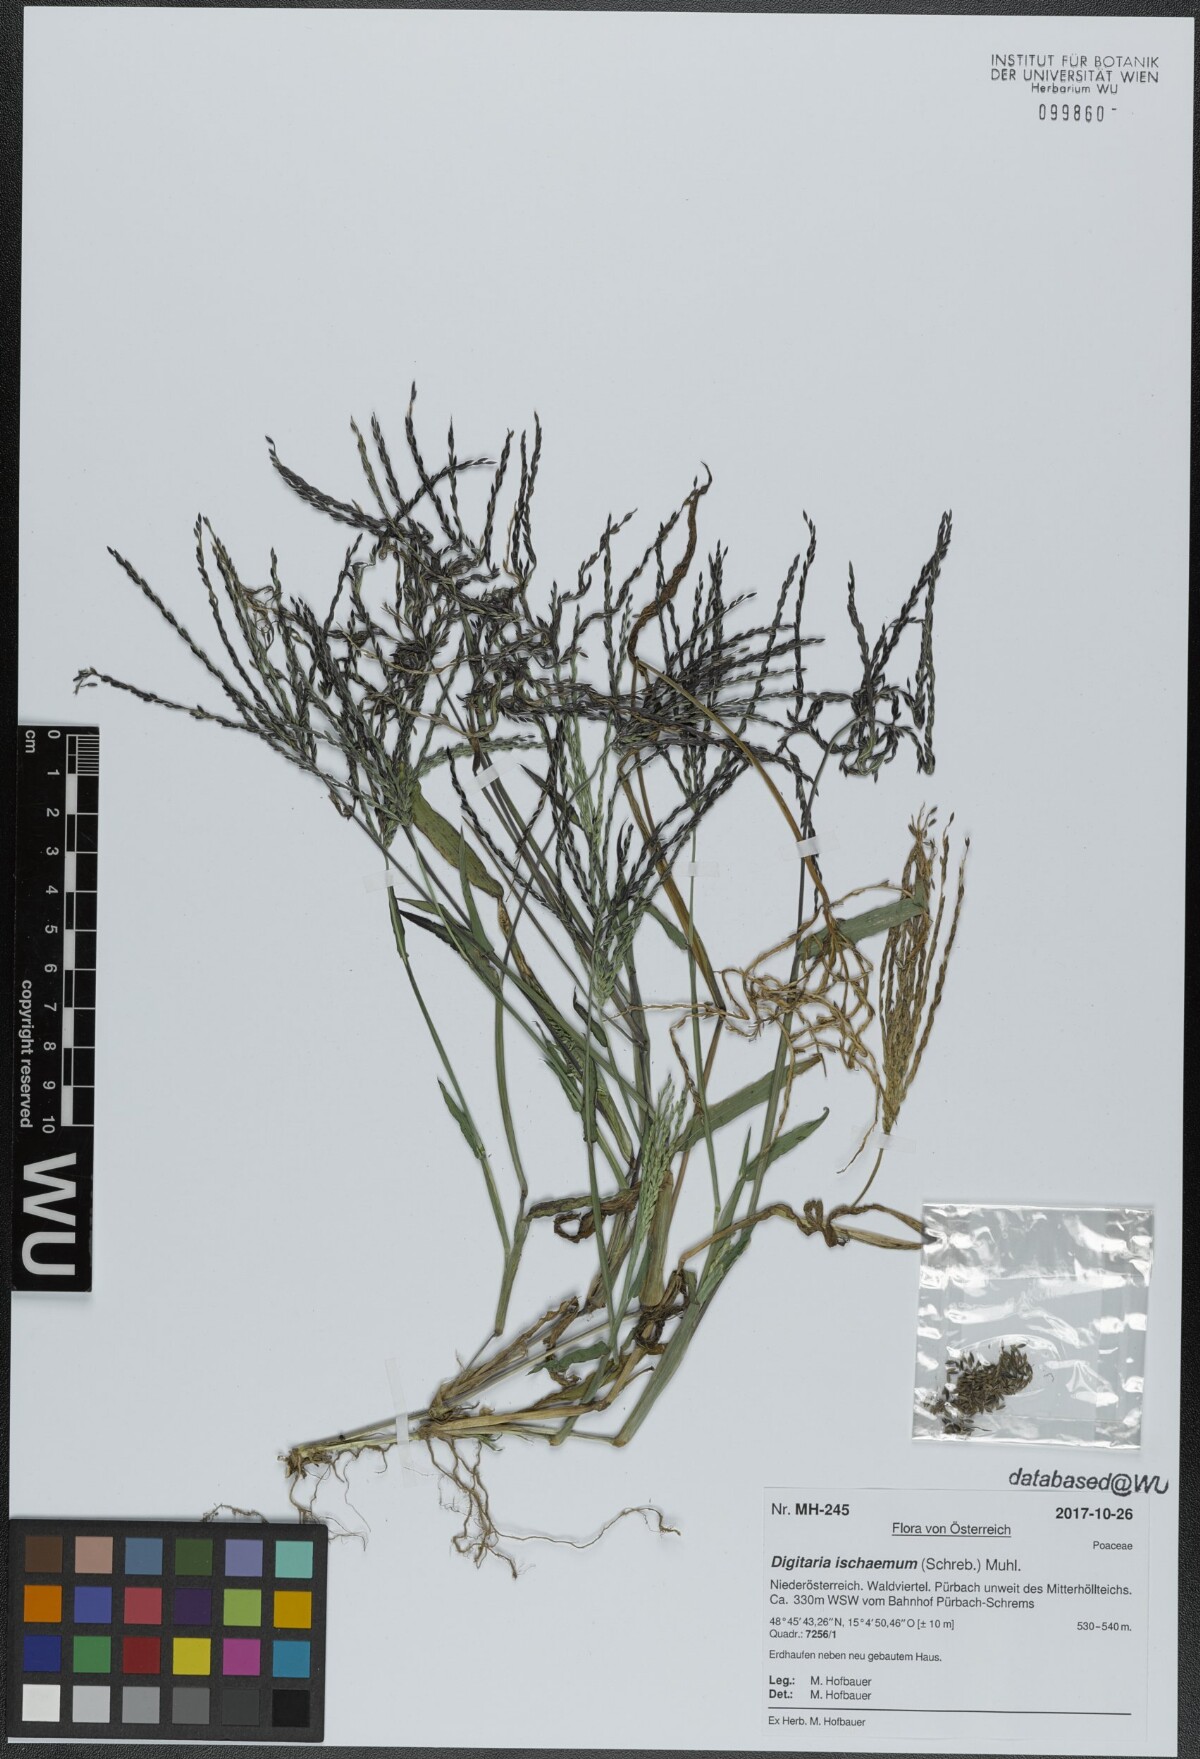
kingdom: Plantae
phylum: Tracheophyta
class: Liliopsida
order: Poales
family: Poaceae
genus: Digitaria
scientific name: Digitaria ischaemum
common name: Smooth crabgrass
